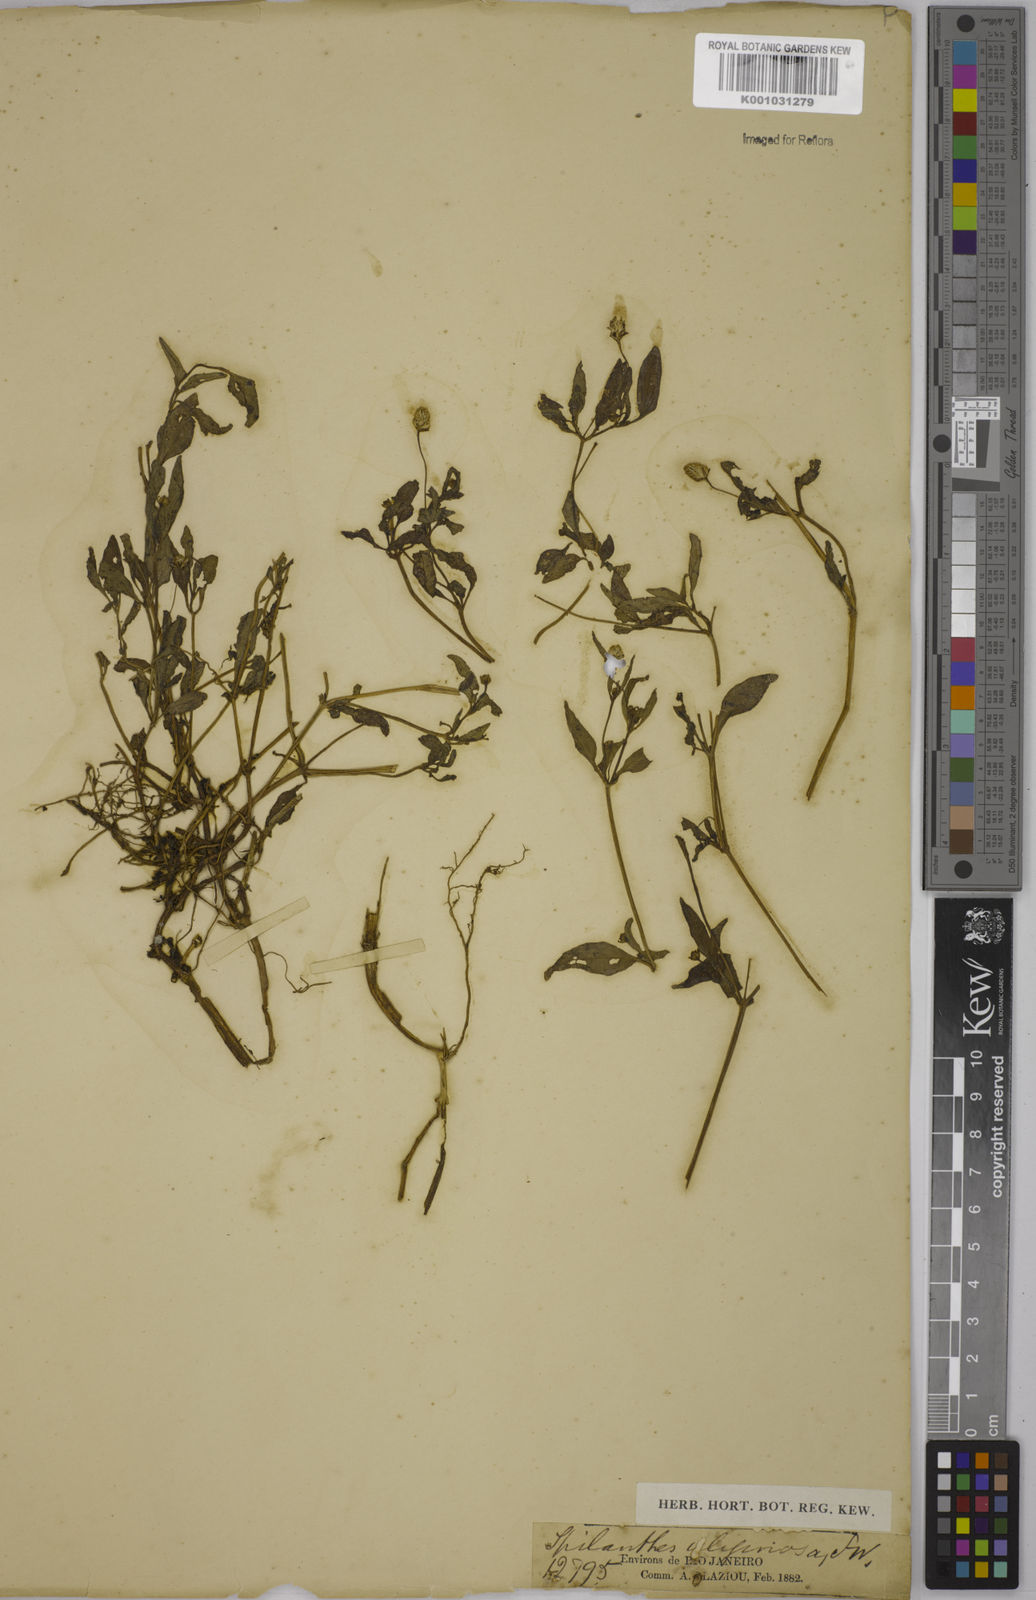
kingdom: Plantae
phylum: Tracheophyta
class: Magnoliopsida
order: Asterales
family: Asteraceae
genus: Acmella
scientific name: Acmella uliginosa
